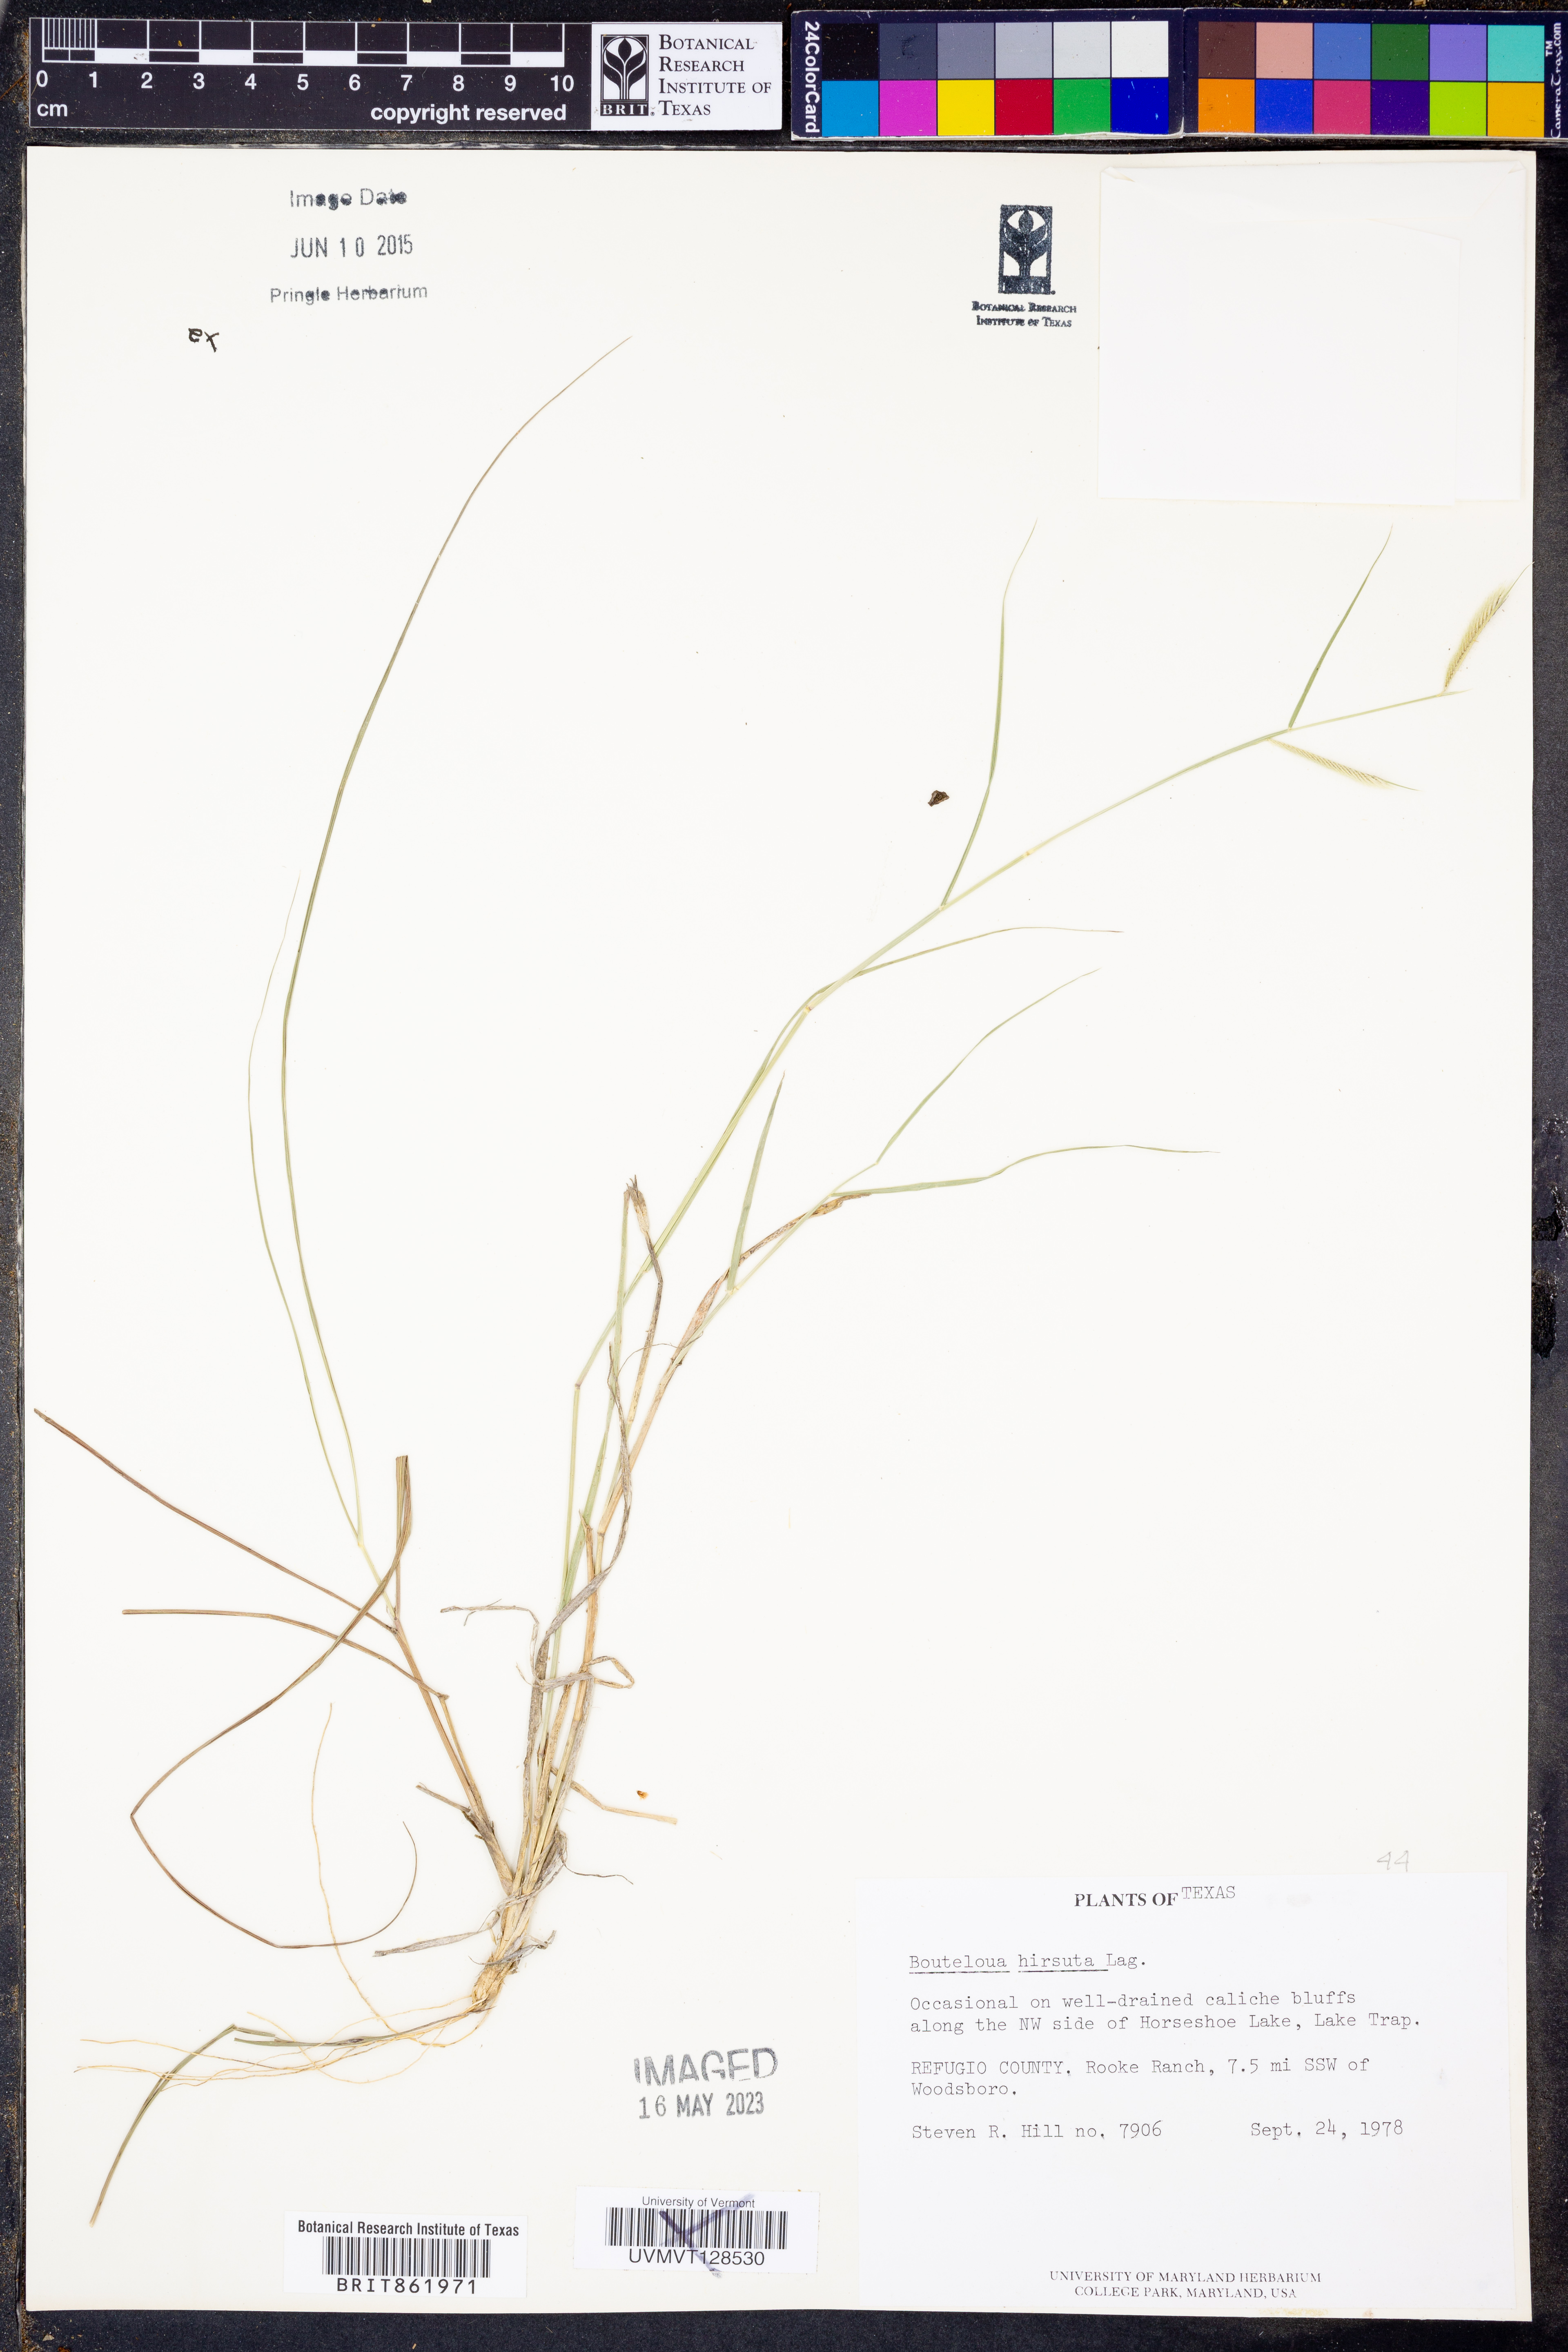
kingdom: Plantae
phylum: Tracheophyta
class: Liliopsida
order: Poales
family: Poaceae
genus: Bouteloua
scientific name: Bouteloua hirsuta
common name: Hairy grama
